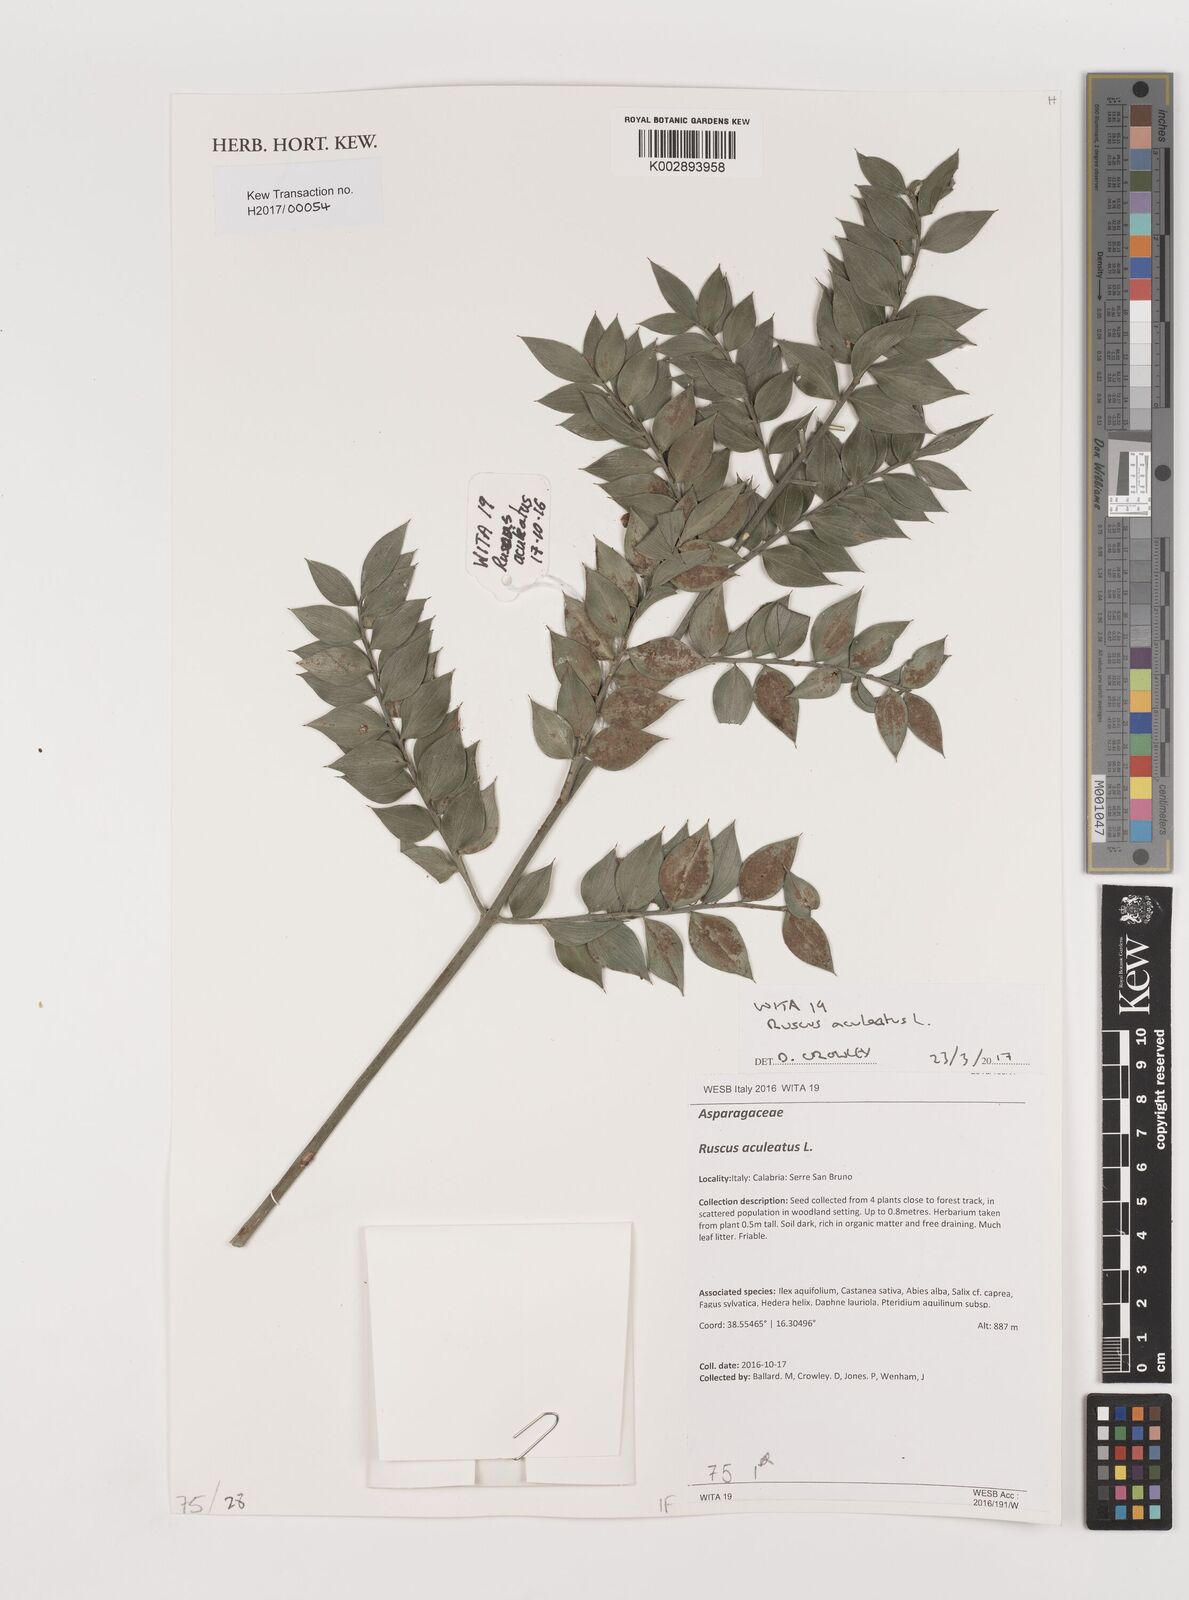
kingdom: Plantae
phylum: Tracheophyta
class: Liliopsida
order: Asparagales
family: Asparagaceae
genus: Ruscus
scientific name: Ruscus
